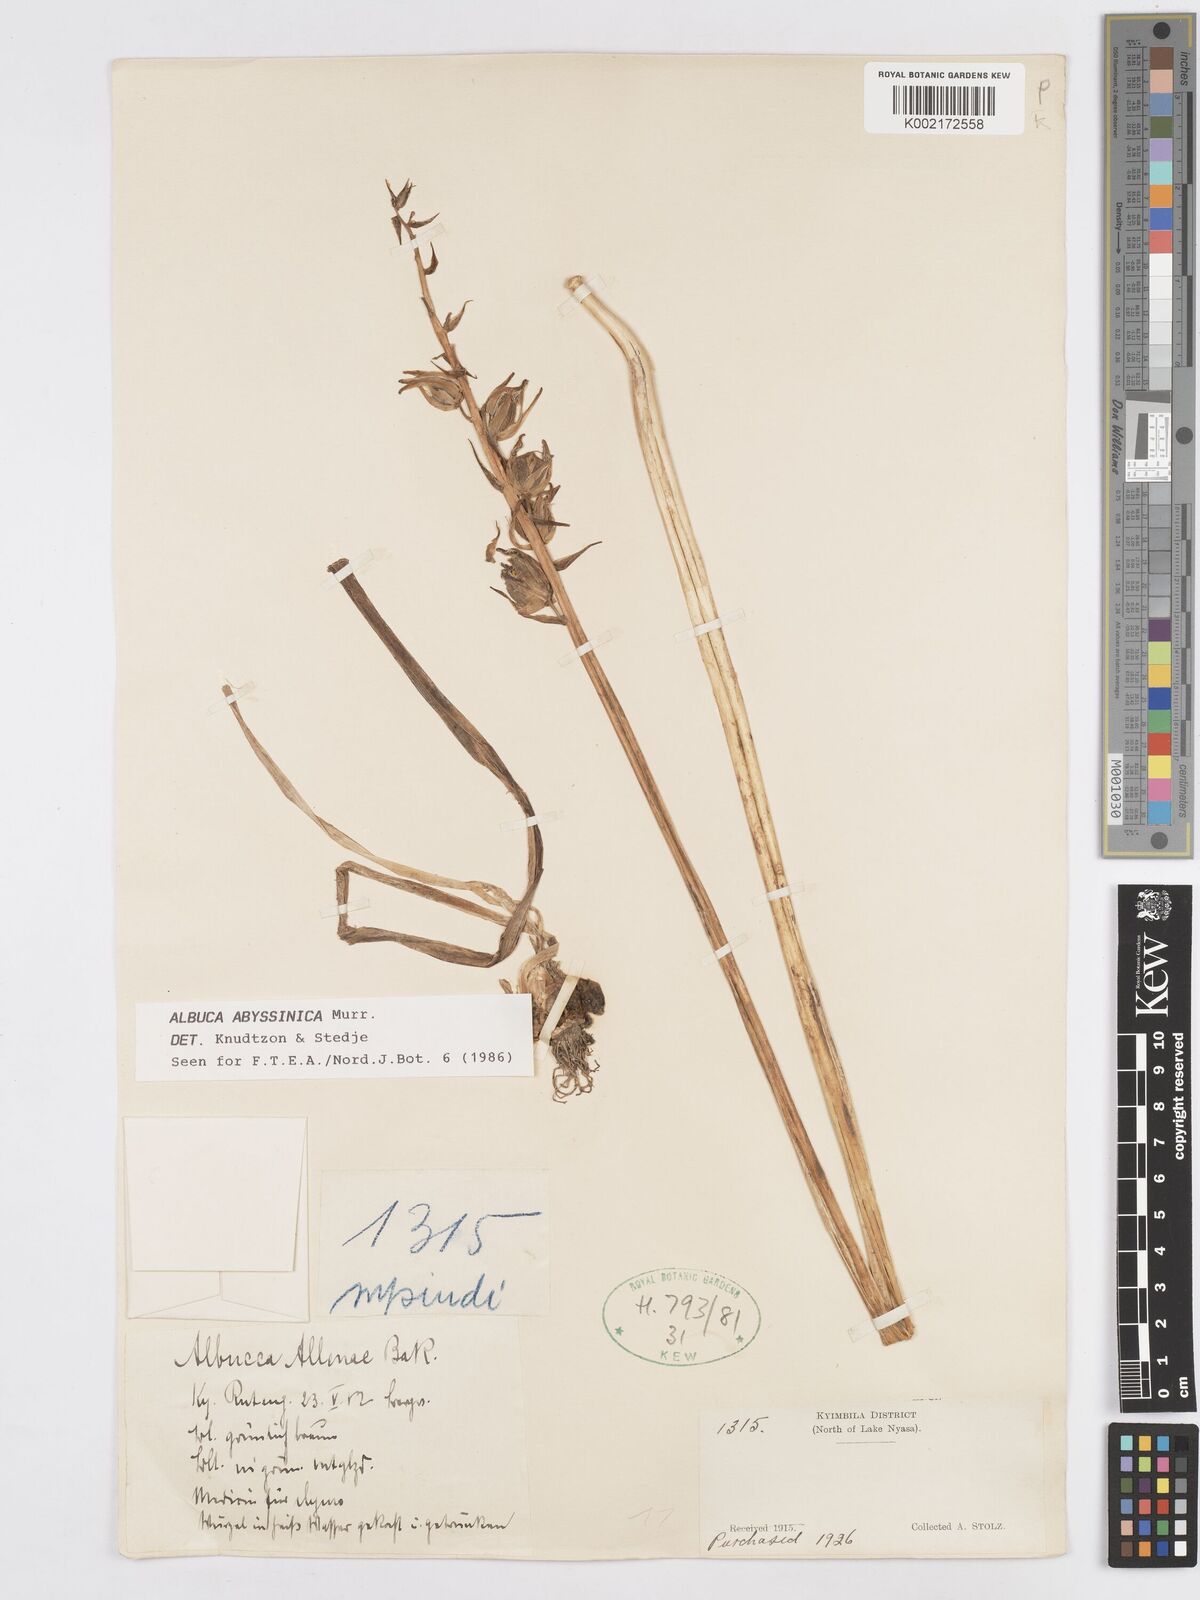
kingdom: Plantae
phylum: Tracheophyta
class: Liliopsida
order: Asparagales
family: Asparagaceae
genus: Albuca
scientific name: Albuca abyssinica
